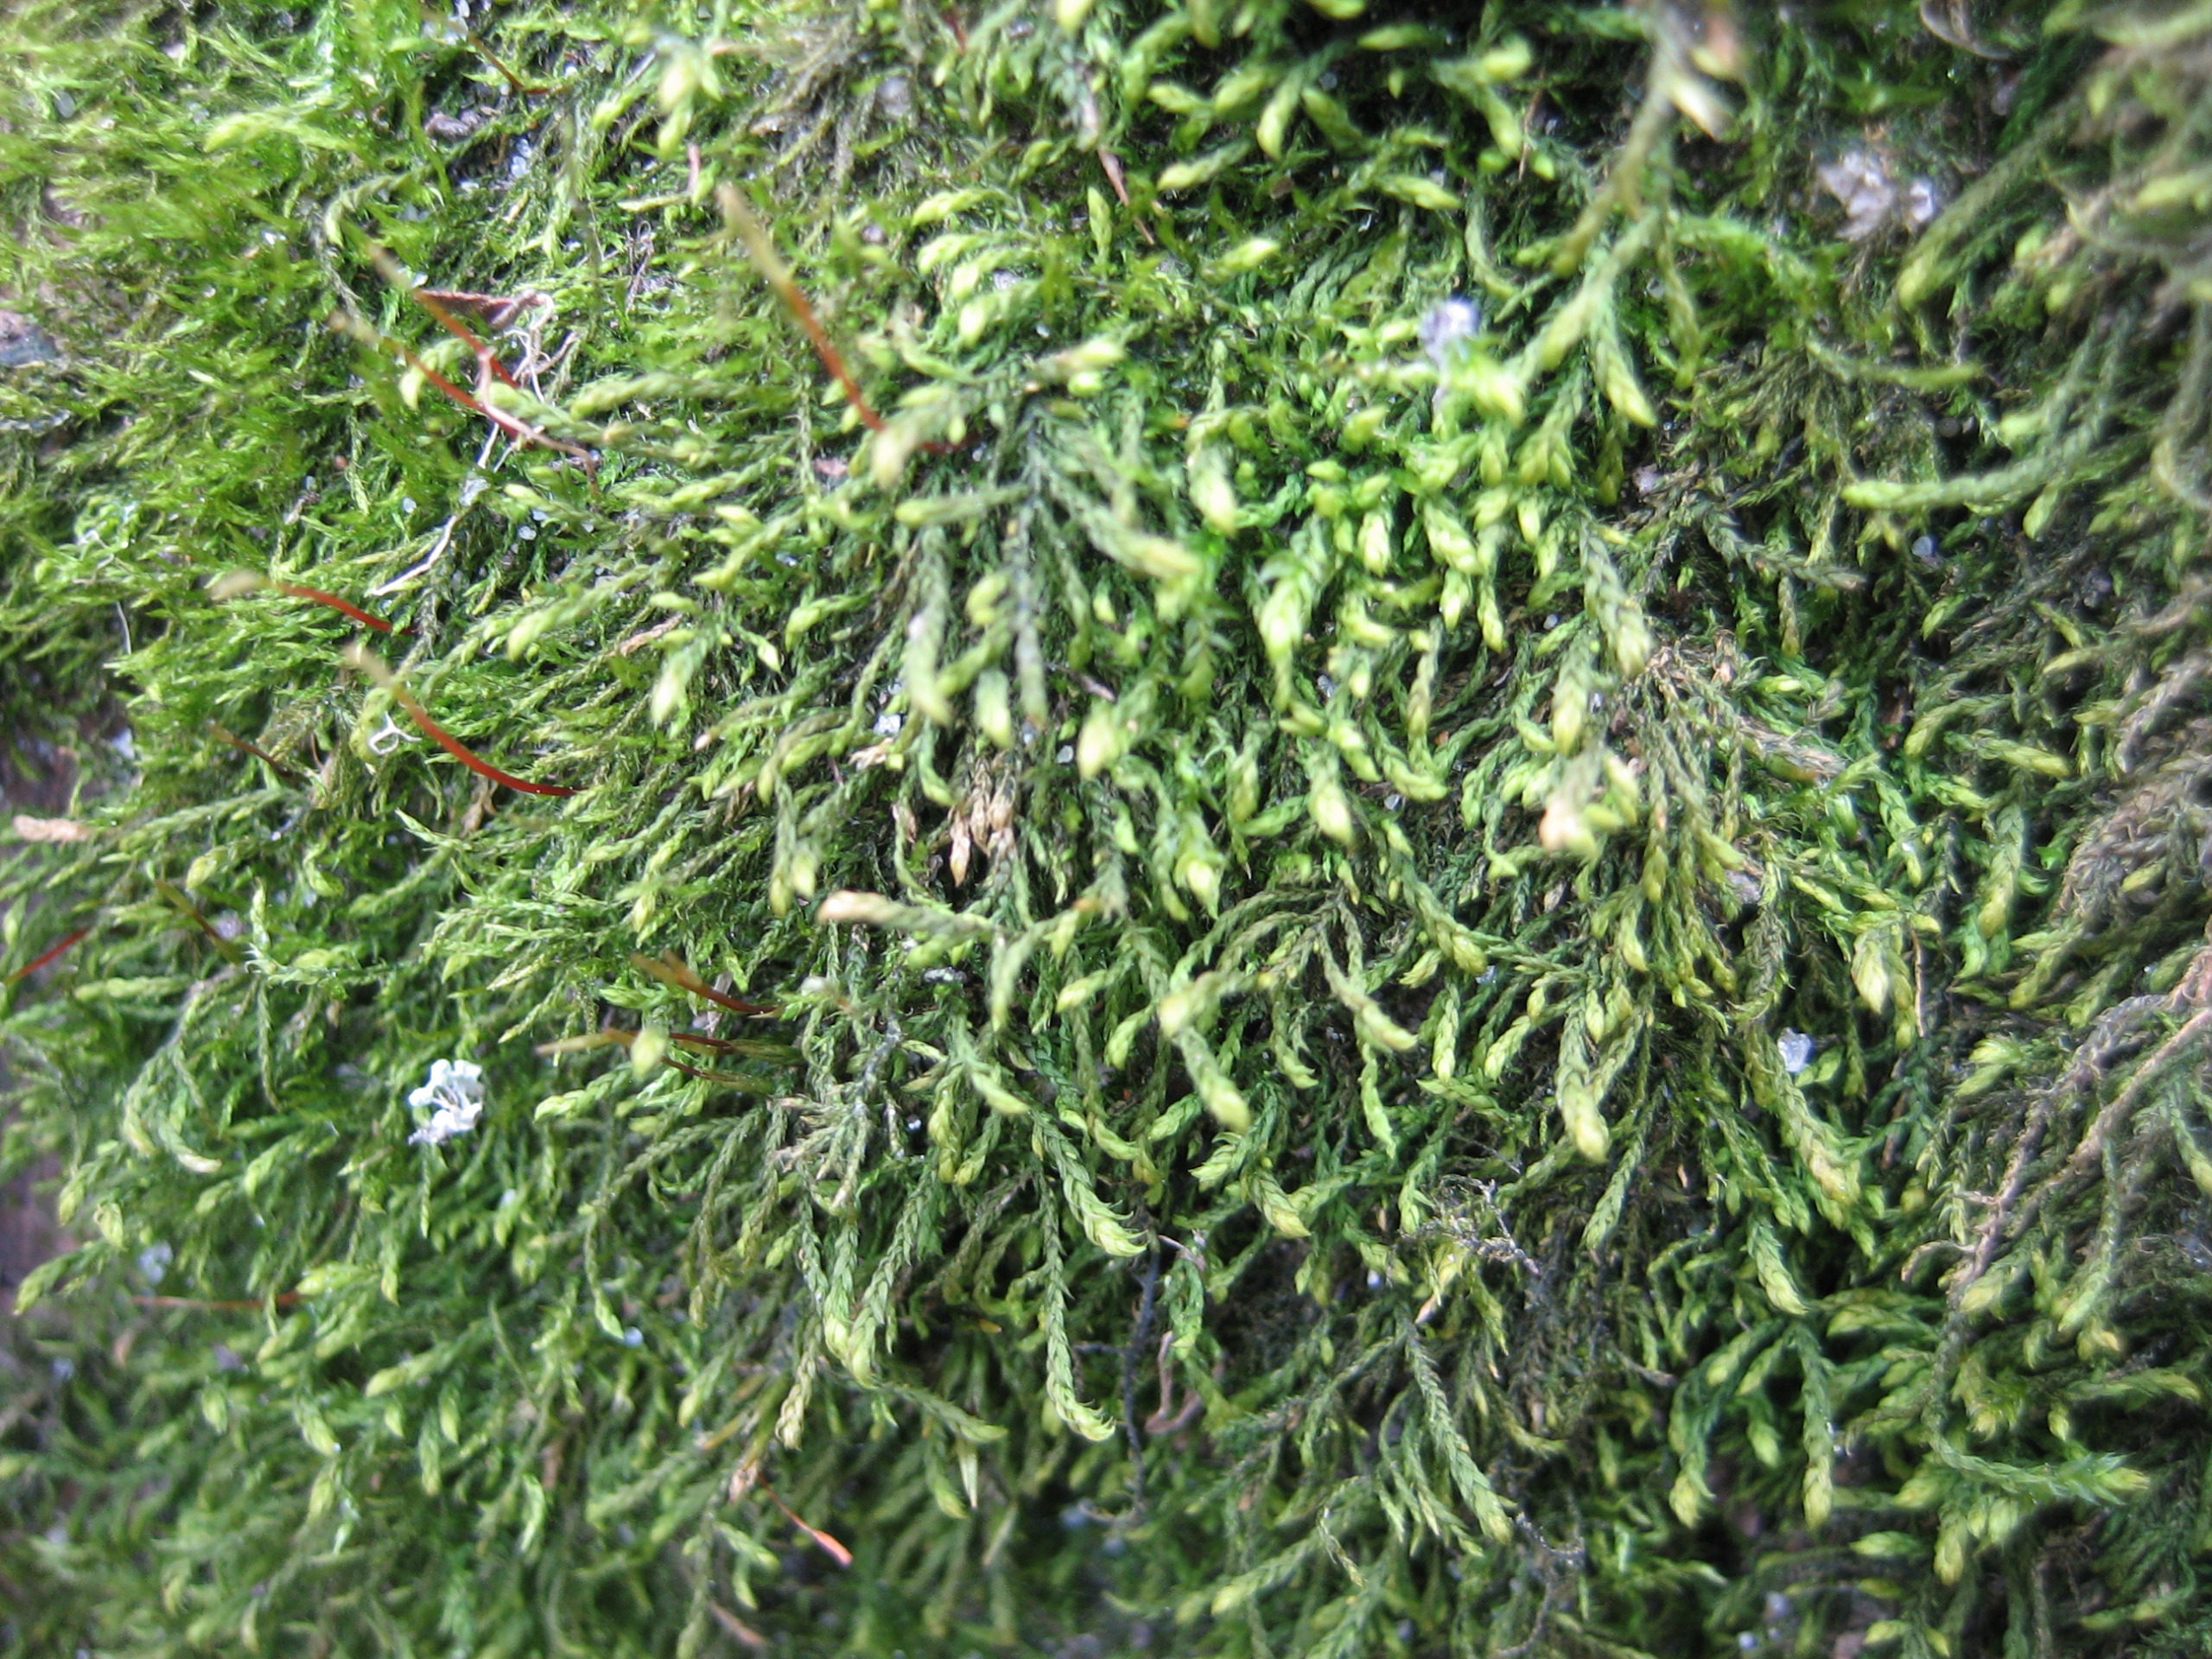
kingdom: Plantae
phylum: Bryophyta
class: Bryopsida
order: Hypnales
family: Leskeaceae
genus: Leskea
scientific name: Leskea polycarpa
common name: Mat lærkemos
